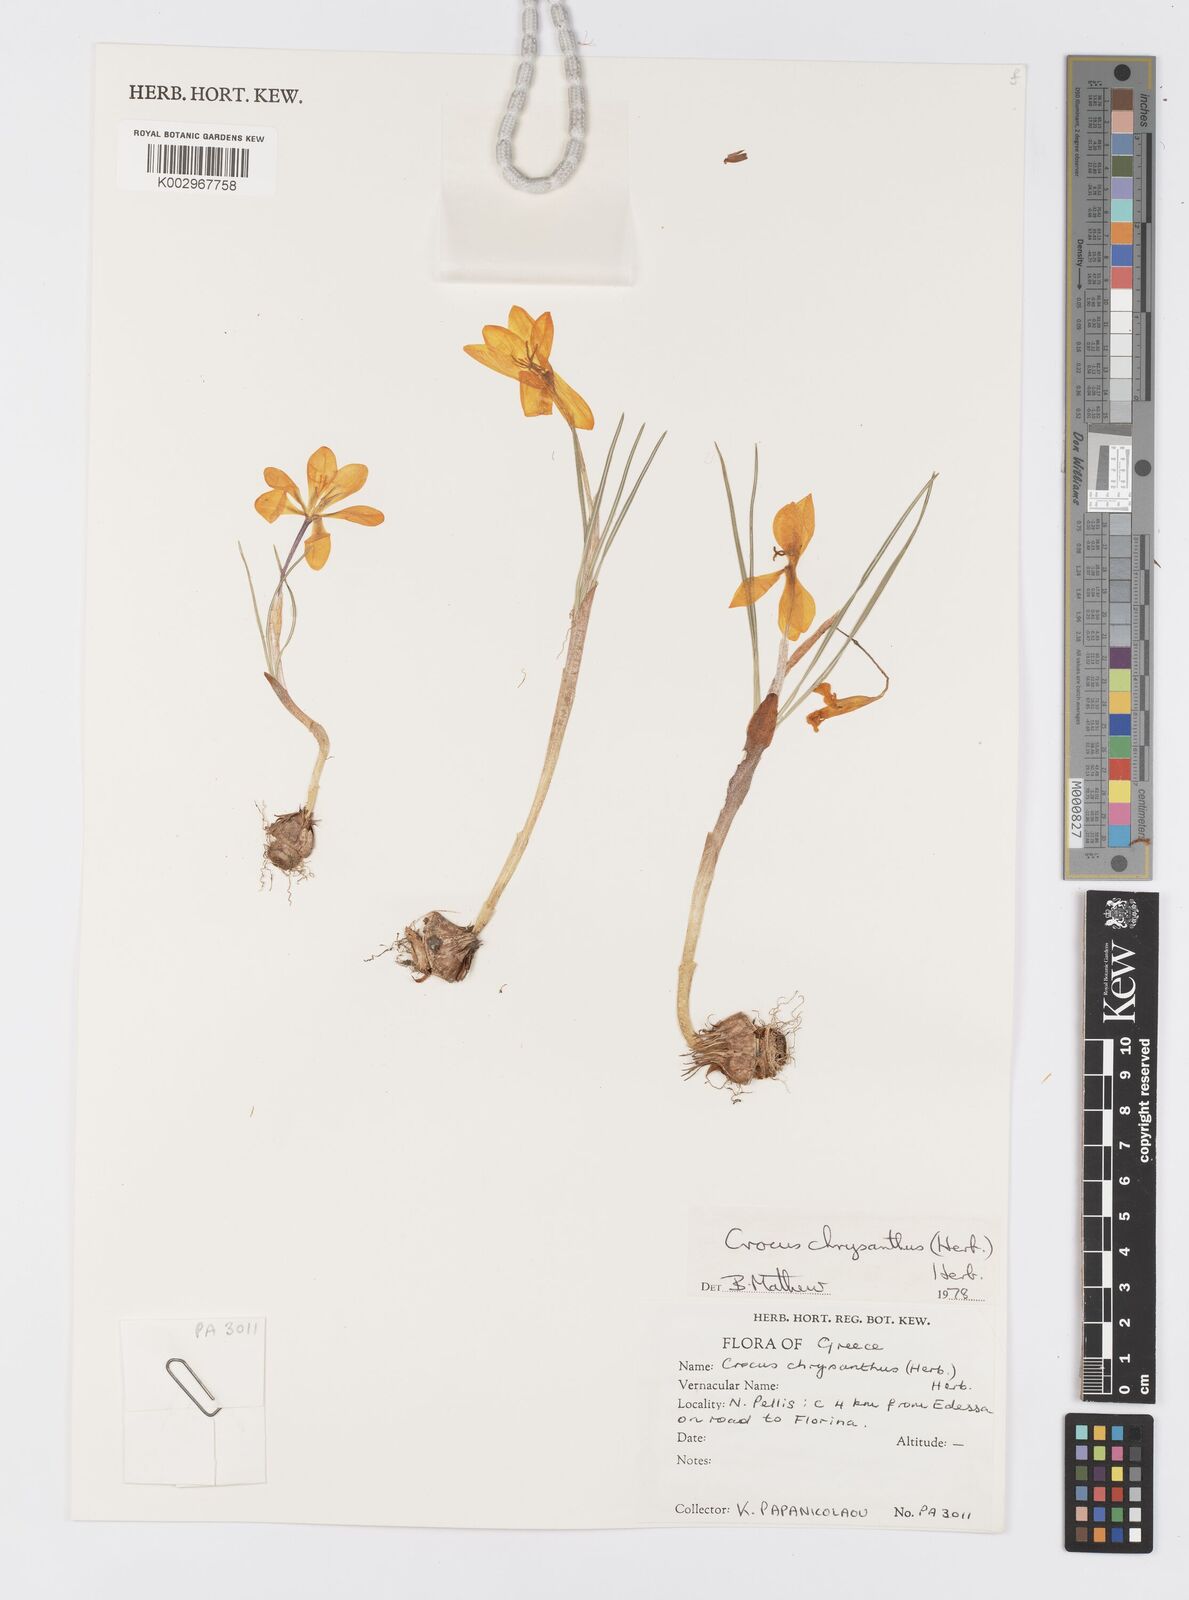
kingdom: Plantae
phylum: Tracheophyta
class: Liliopsida
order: Asparagales
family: Iridaceae
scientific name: Iridaceae
